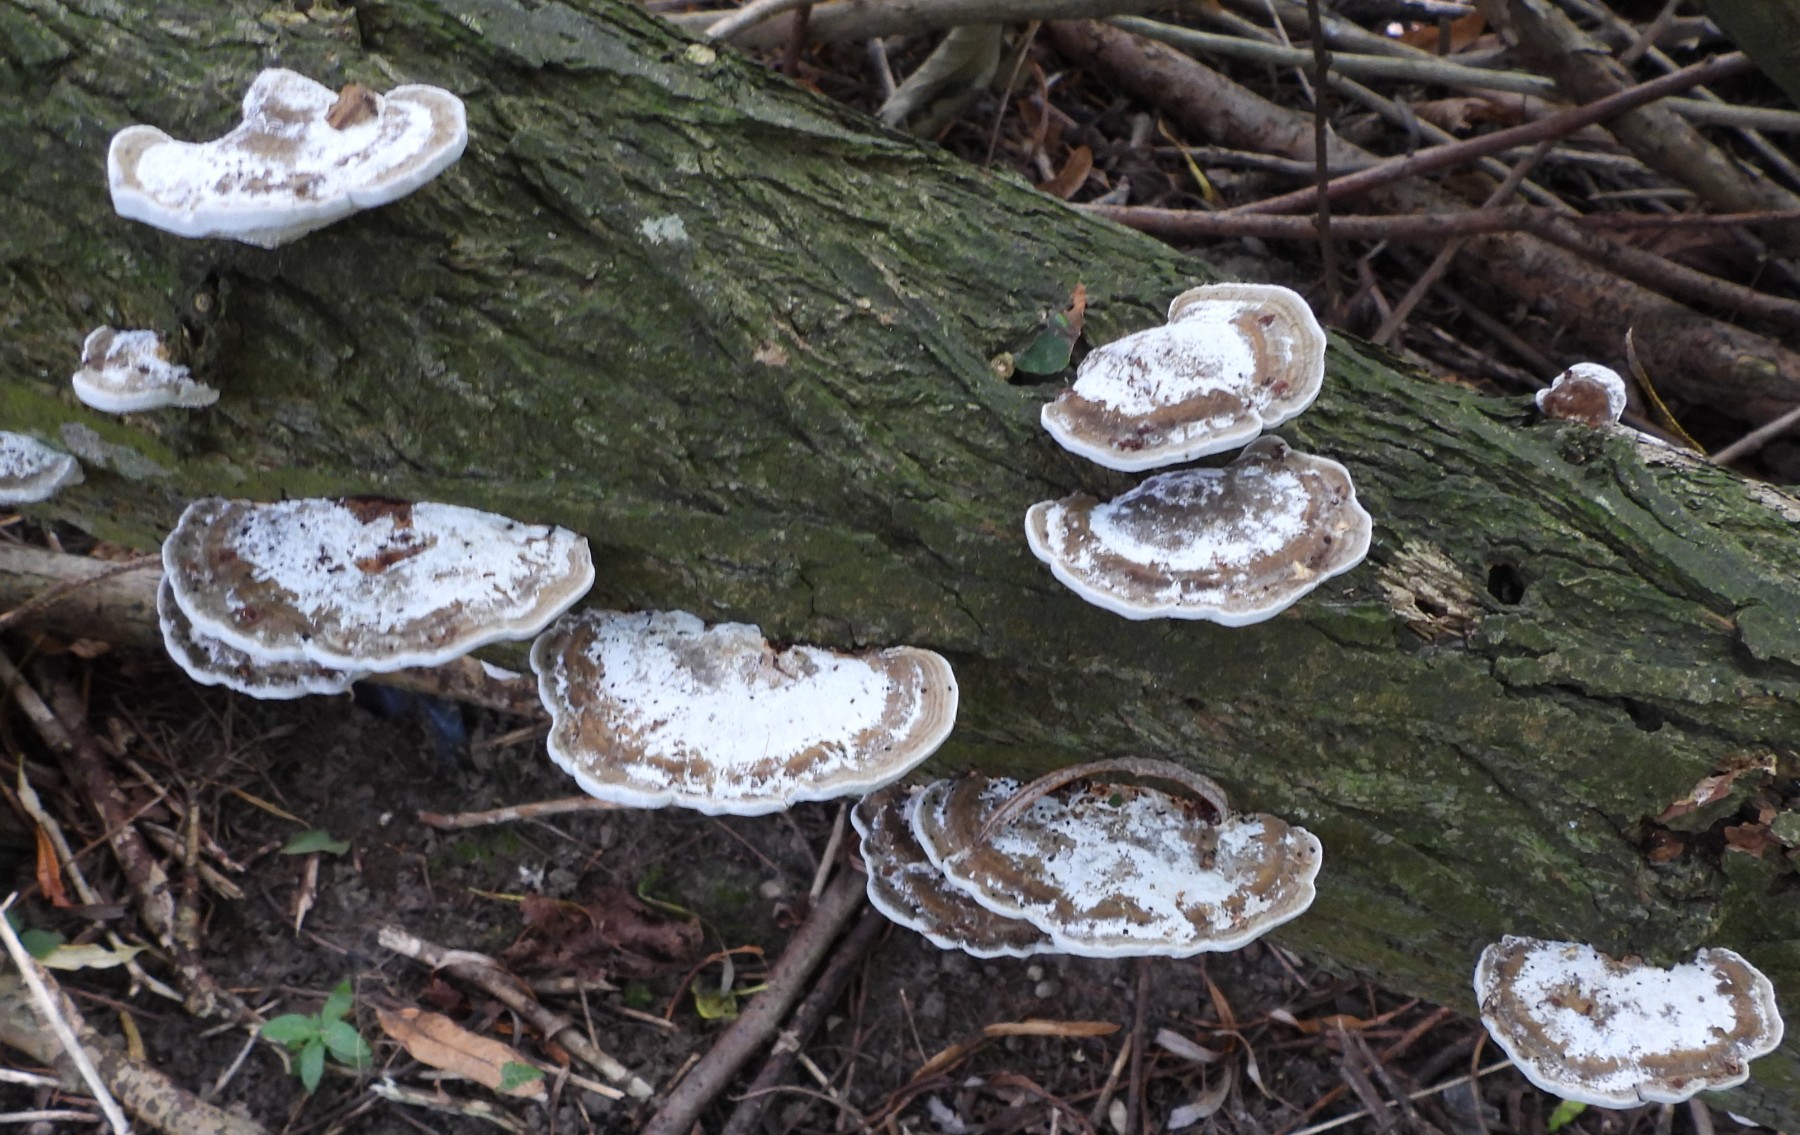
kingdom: Fungi
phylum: Basidiomycota
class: Agaricomycetes
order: Polyporales
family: Polyporaceae
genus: Daedaleopsis
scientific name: Daedaleopsis confragosa
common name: rødmende læderporesvamp
